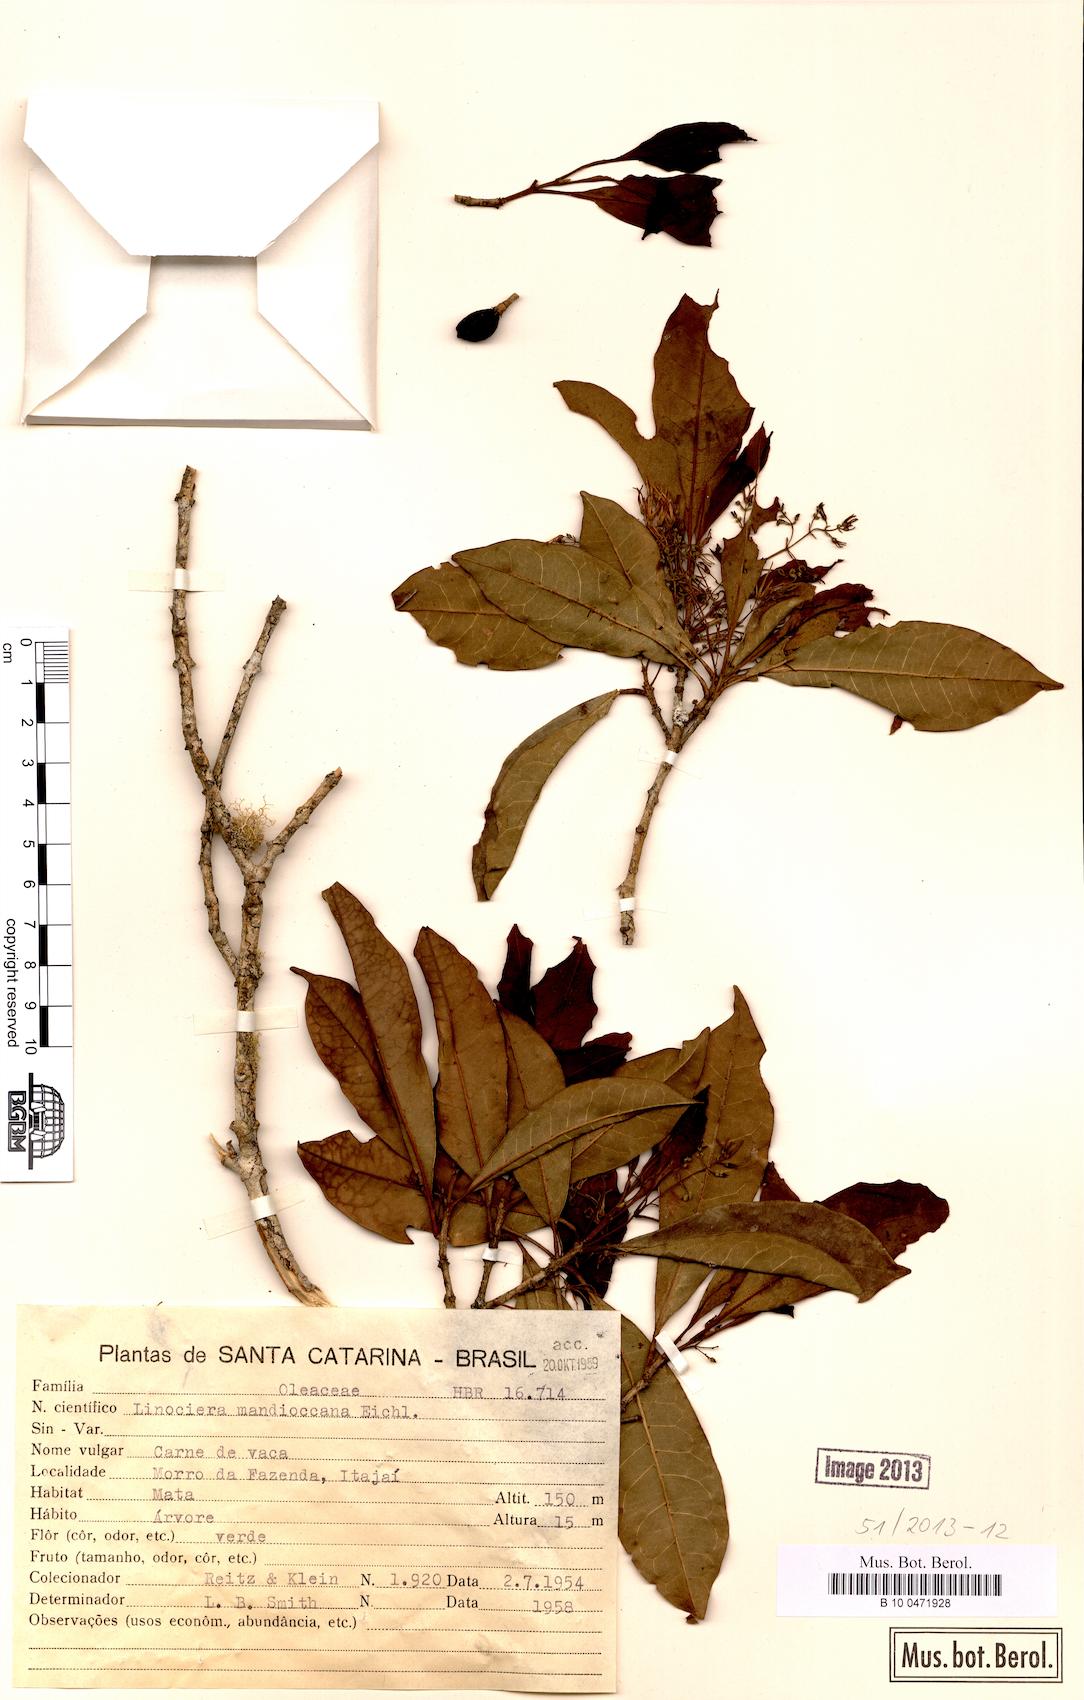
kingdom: Plantae
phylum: Tracheophyta
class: Magnoliopsida
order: Lamiales
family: Oleaceae
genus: Chionanthus
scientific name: Chionanthus filiformis
